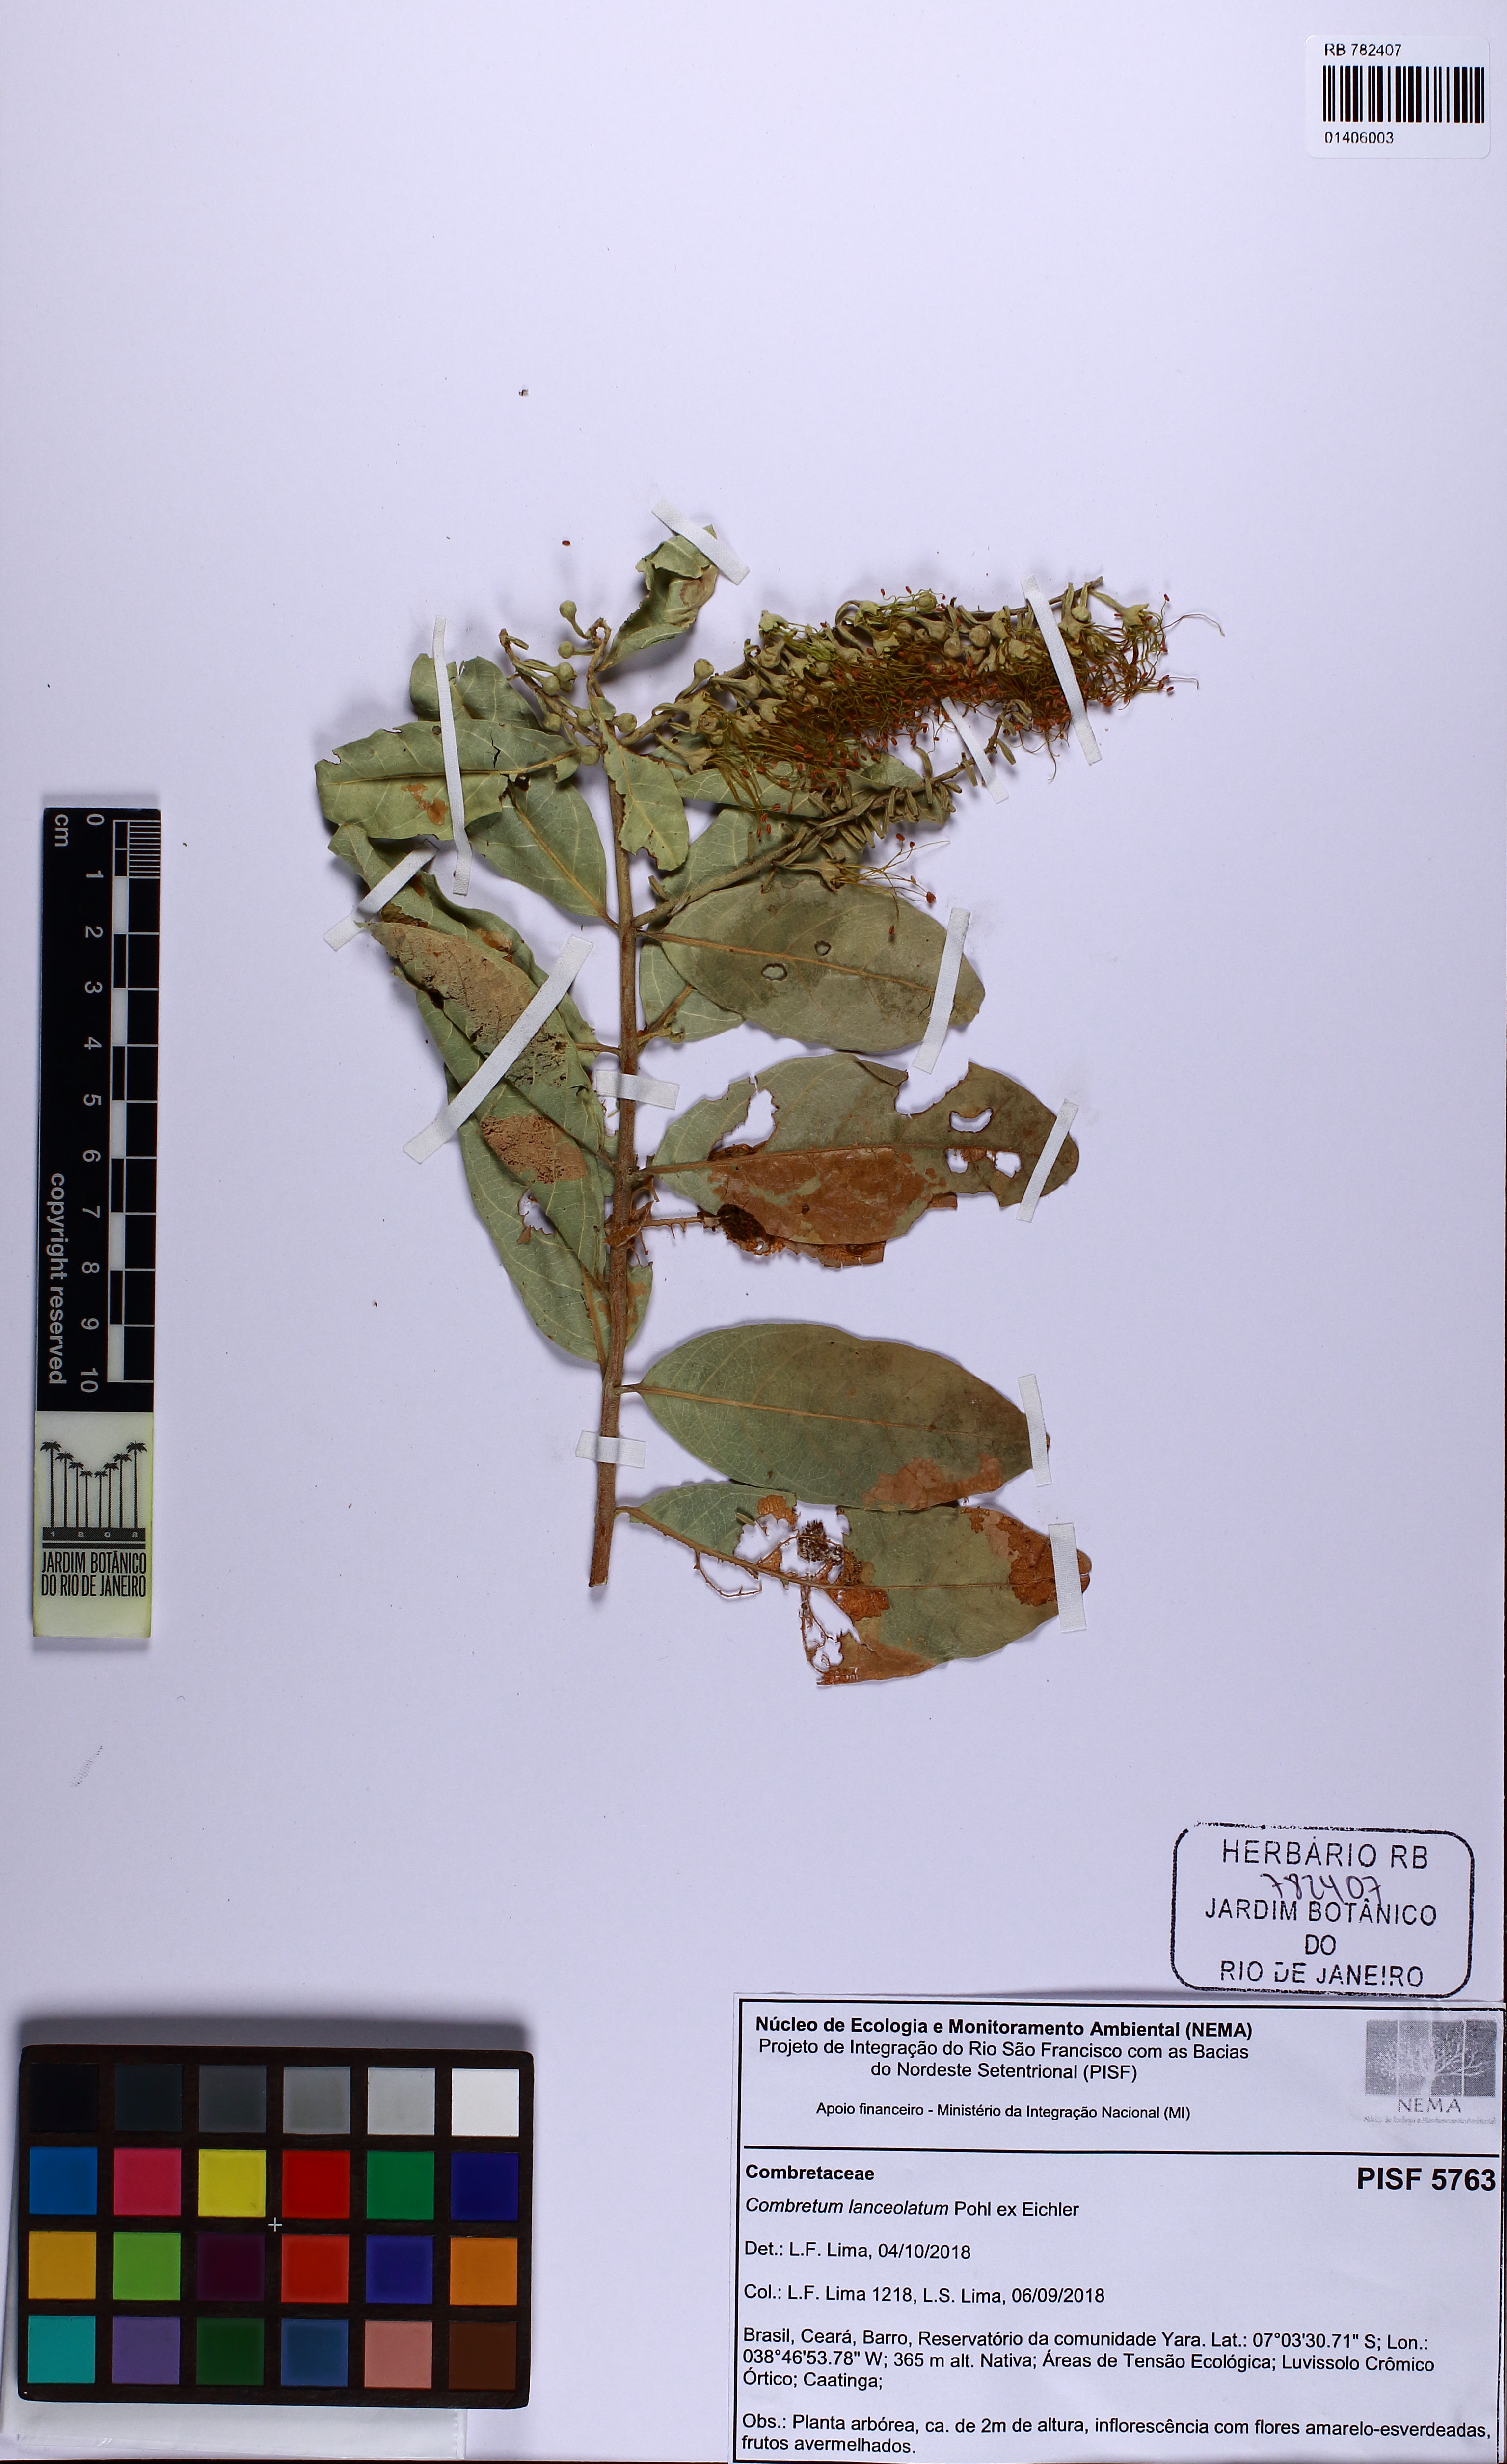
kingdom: Plantae
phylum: Tracheophyta
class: Magnoliopsida
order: Myrtales
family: Combretaceae
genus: Combretum
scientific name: Combretum lanceolatum
